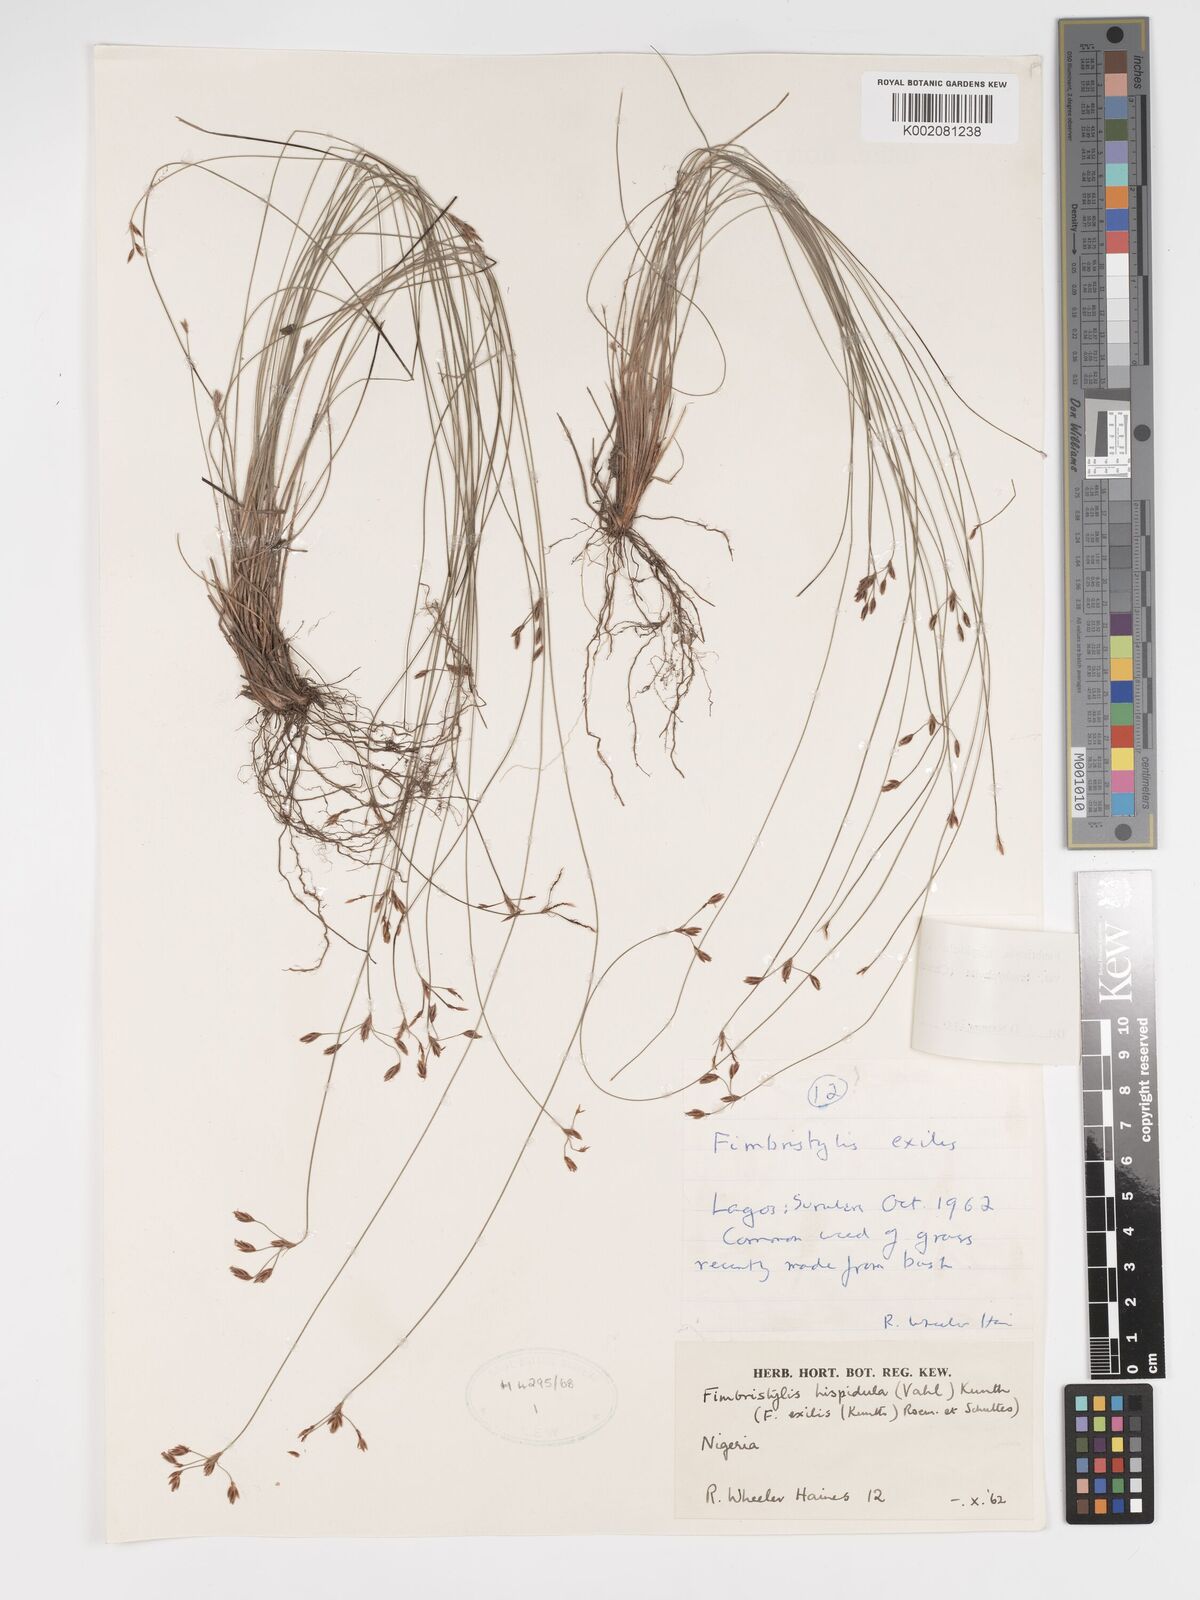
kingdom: Plantae
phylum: Tracheophyta
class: Liliopsida
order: Poales
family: Cyperaceae
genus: Bulbostylis
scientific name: Bulbostylis hispidula
